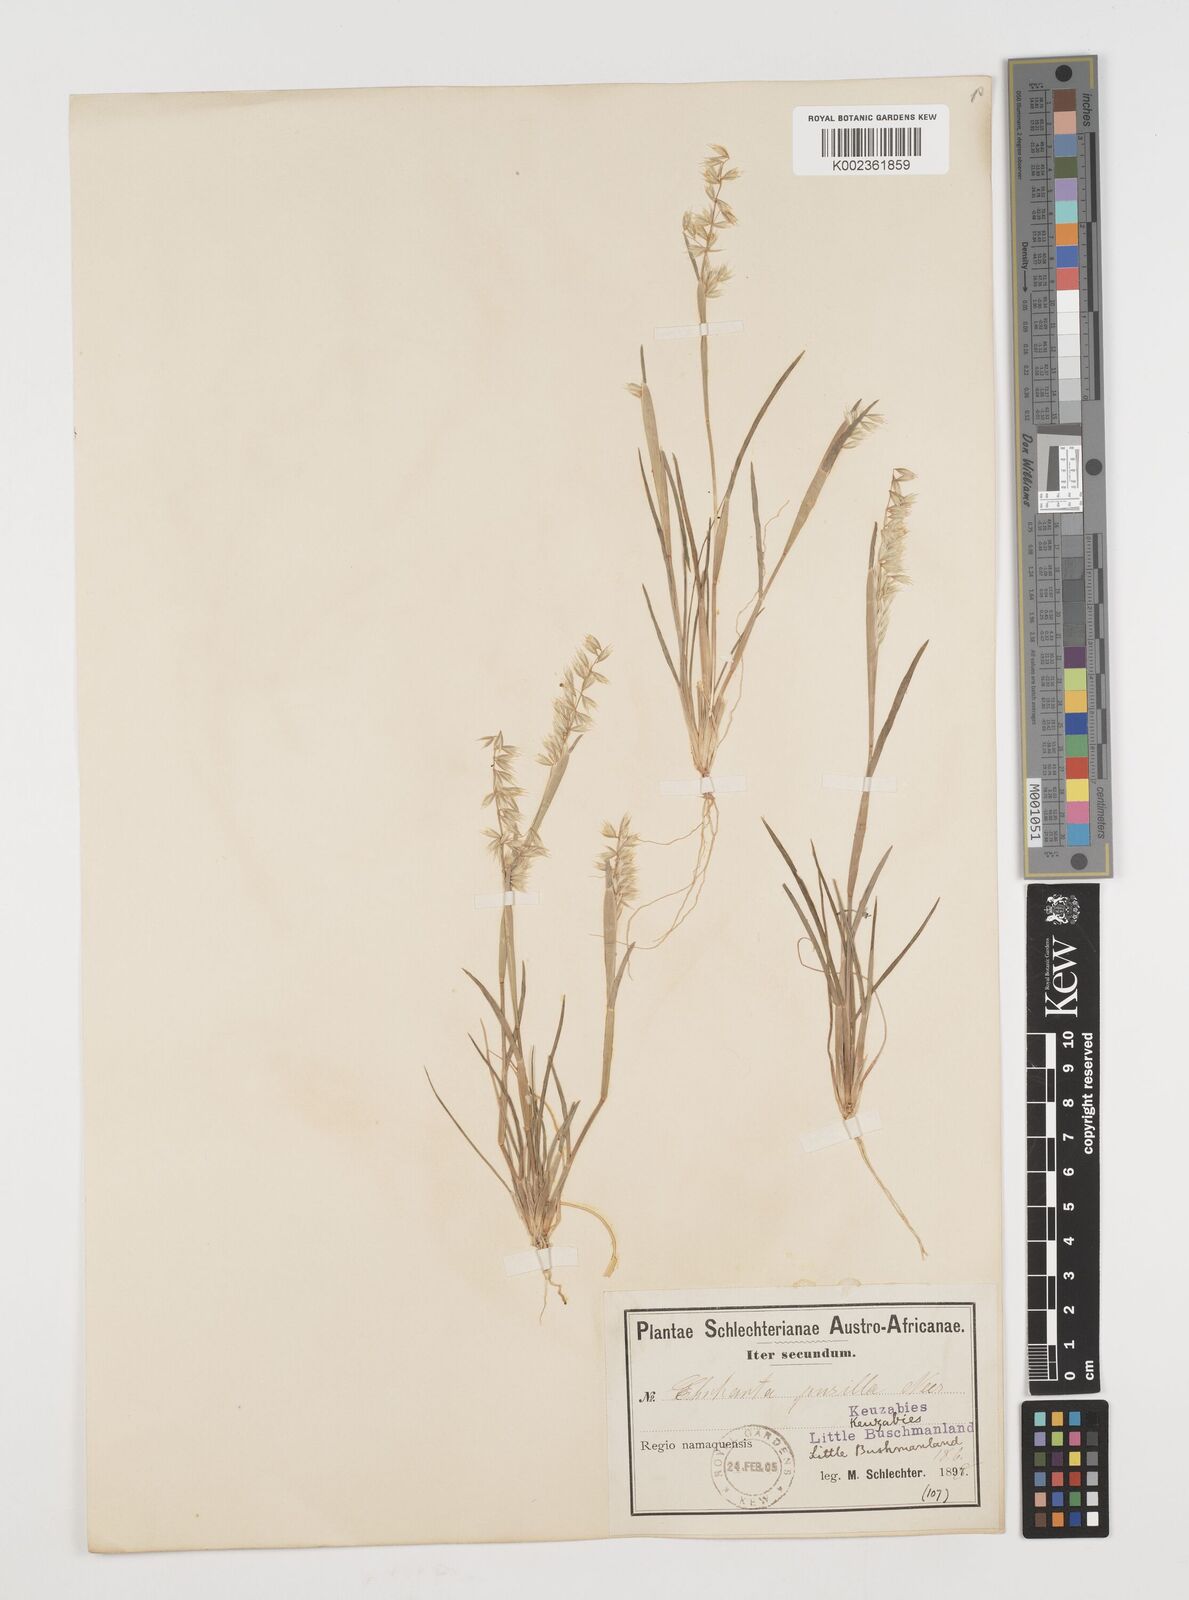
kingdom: Plantae
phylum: Tracheophyta
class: Liliopsida
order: Poales
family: Poaceae
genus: Ehrharta
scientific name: Ehrharta pusilla
